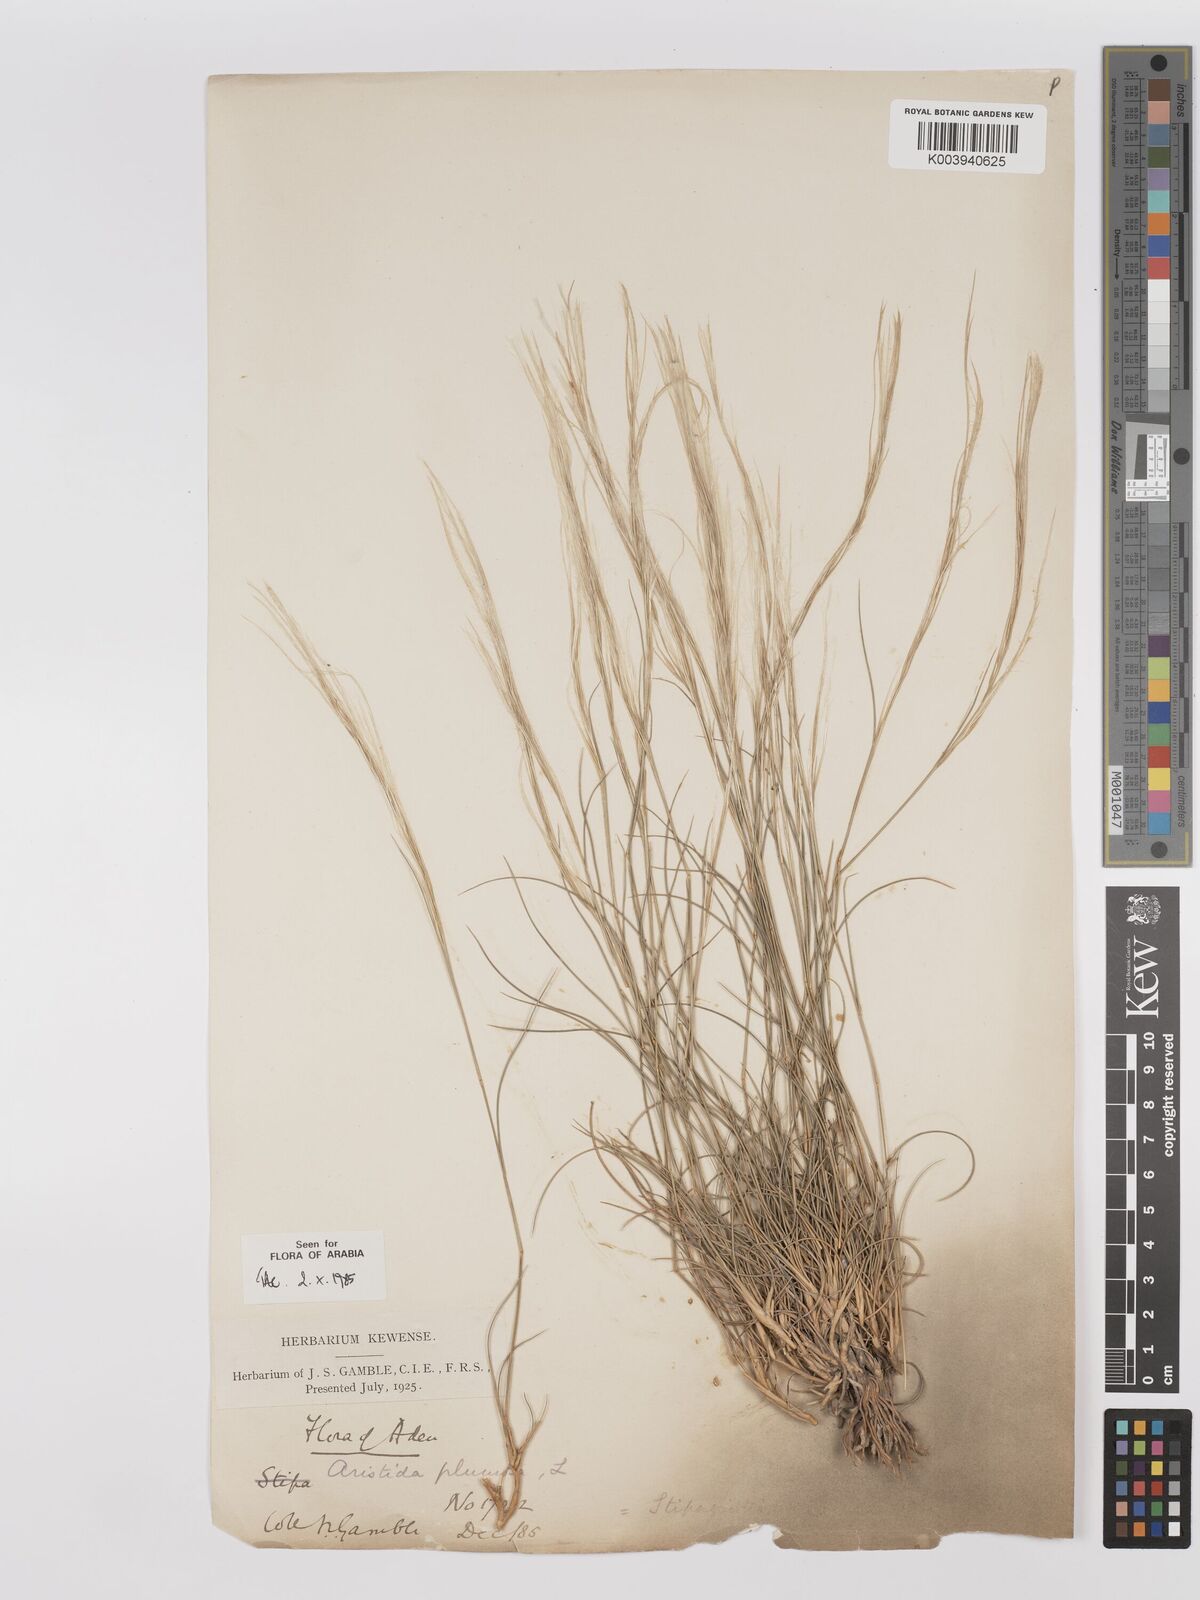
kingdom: Plantae
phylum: Tracheophyta
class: Liliopsida
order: Poales
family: Poaceae
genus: Stipagrostis
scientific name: Stipagrostis plumosa
